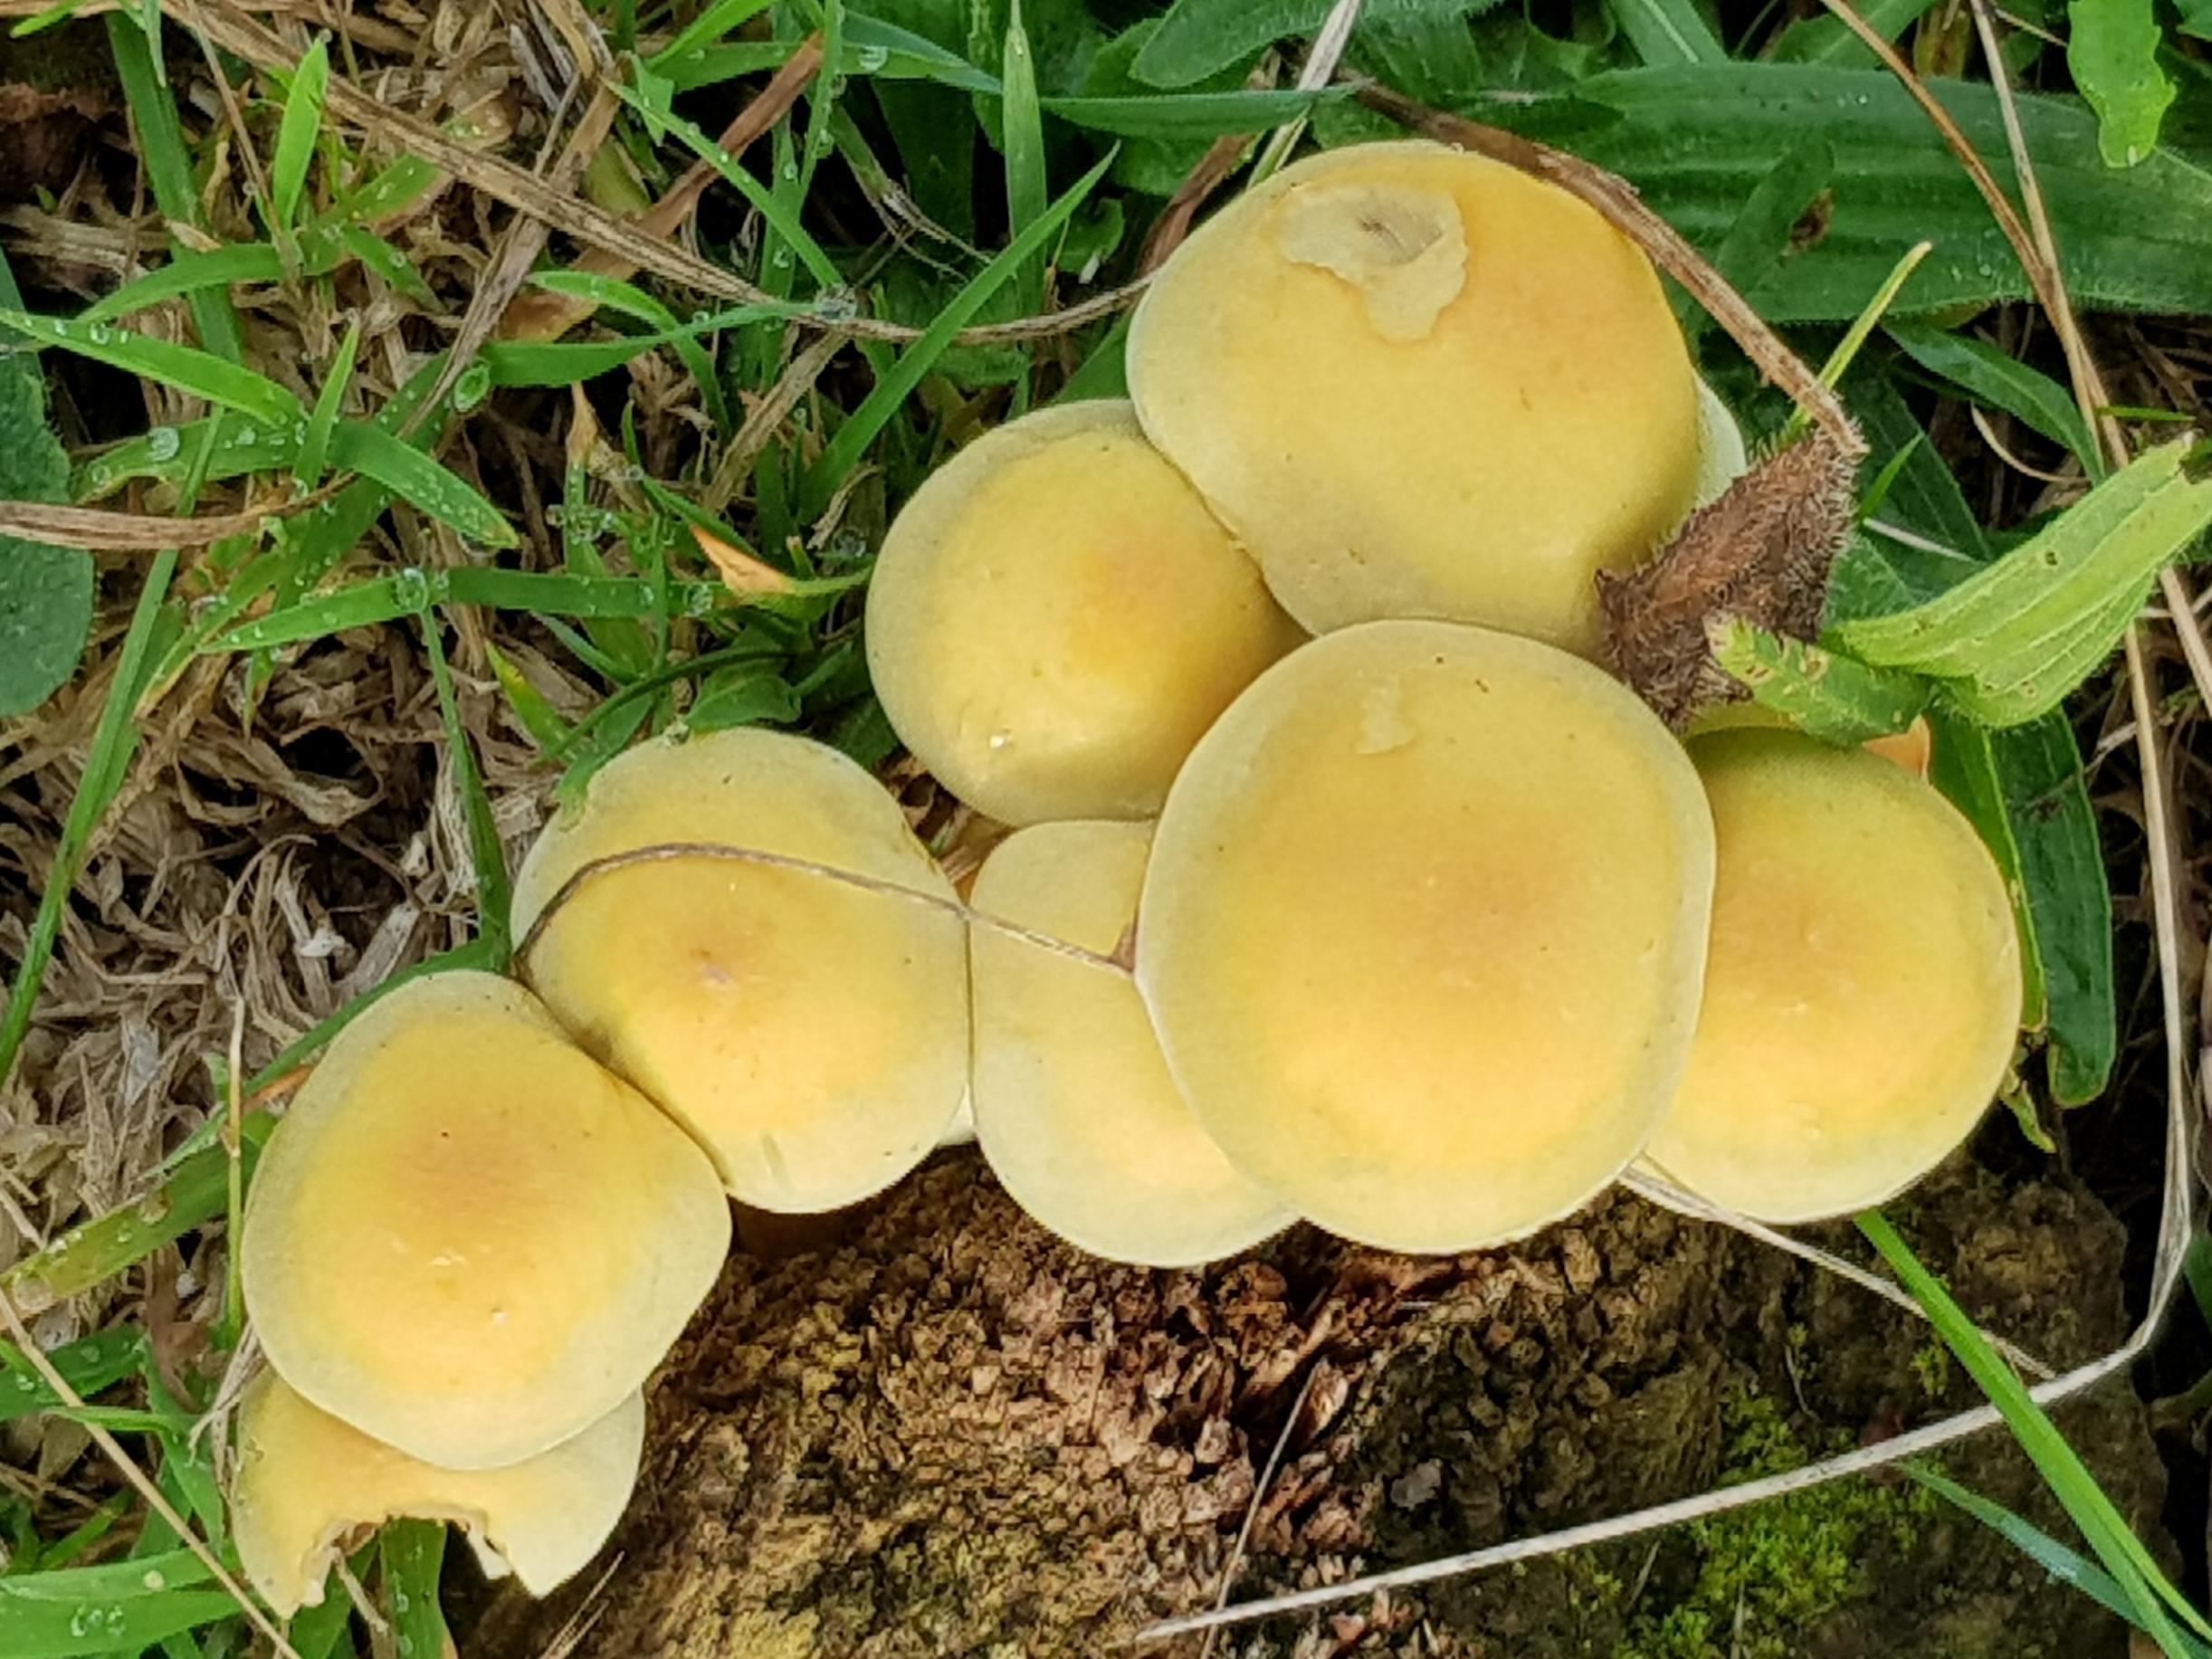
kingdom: Fungi
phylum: Basidiomycota
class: Agaricomycetes
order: Agaricales
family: Strophariaceae
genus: Hypholoma
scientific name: Hypholoma fasciculare
